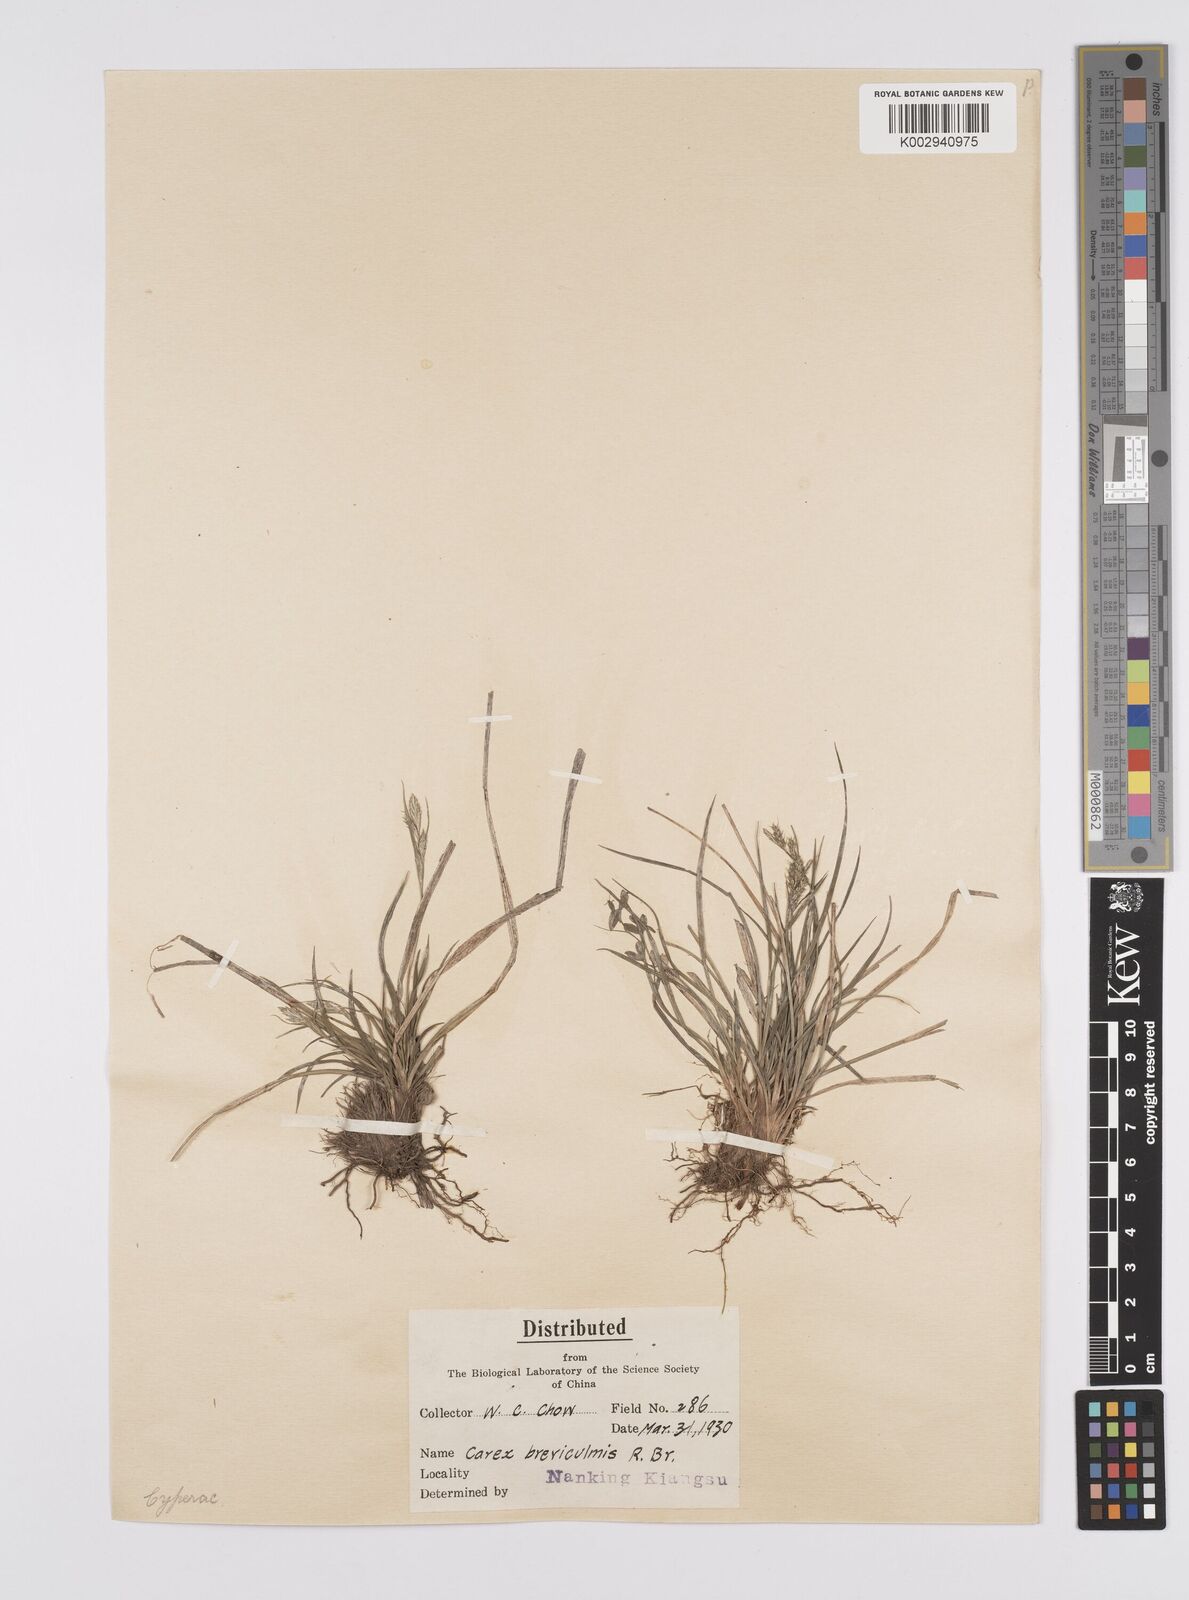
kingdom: Plantae
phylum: Tracheophyta
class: Liliopsida
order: Poales
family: Cyperaceae
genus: Carex
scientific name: Carex breviculmis
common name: Asian shortstem sedge
